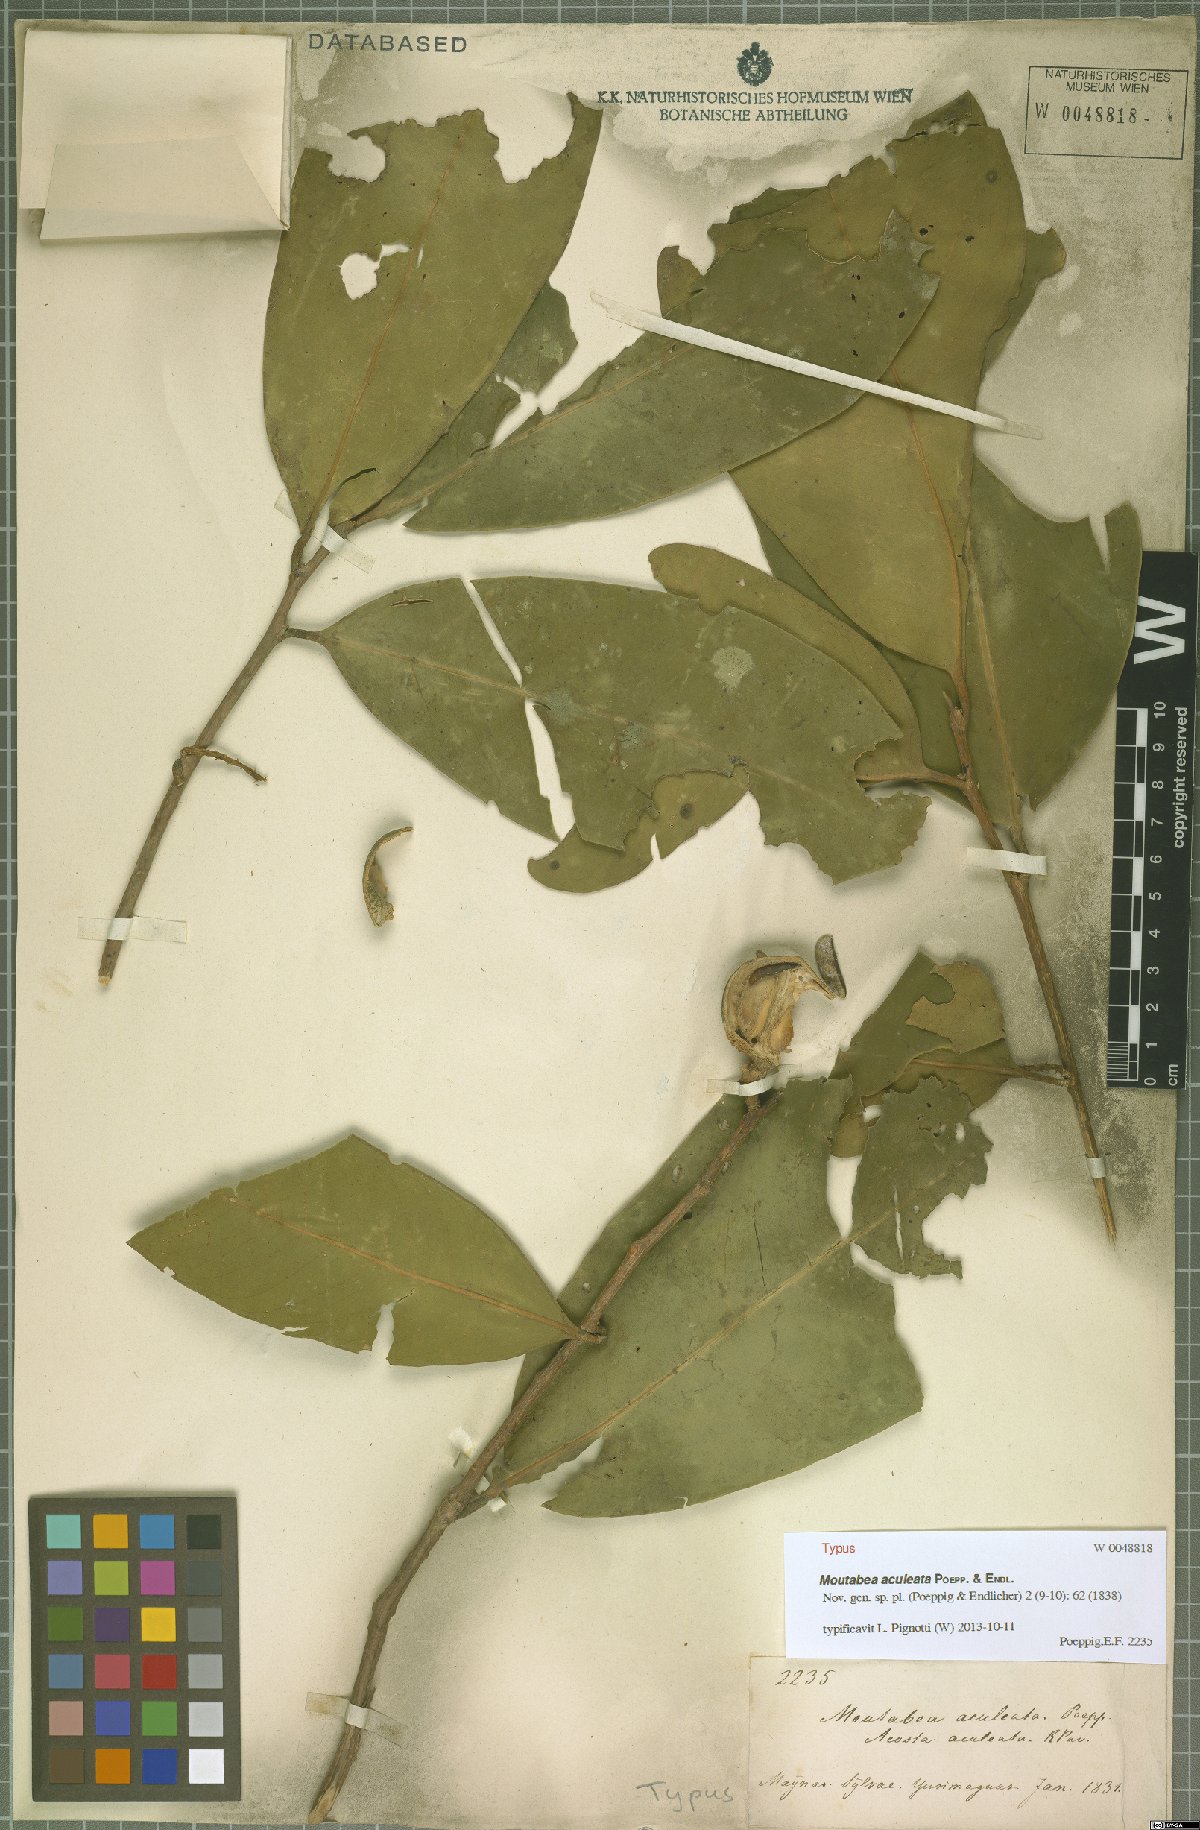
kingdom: Plantae
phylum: Tracheophyta
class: Magnoliopsida
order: Fabales
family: Polygalaceae
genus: Moutabea
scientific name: Moutabea aculeata
